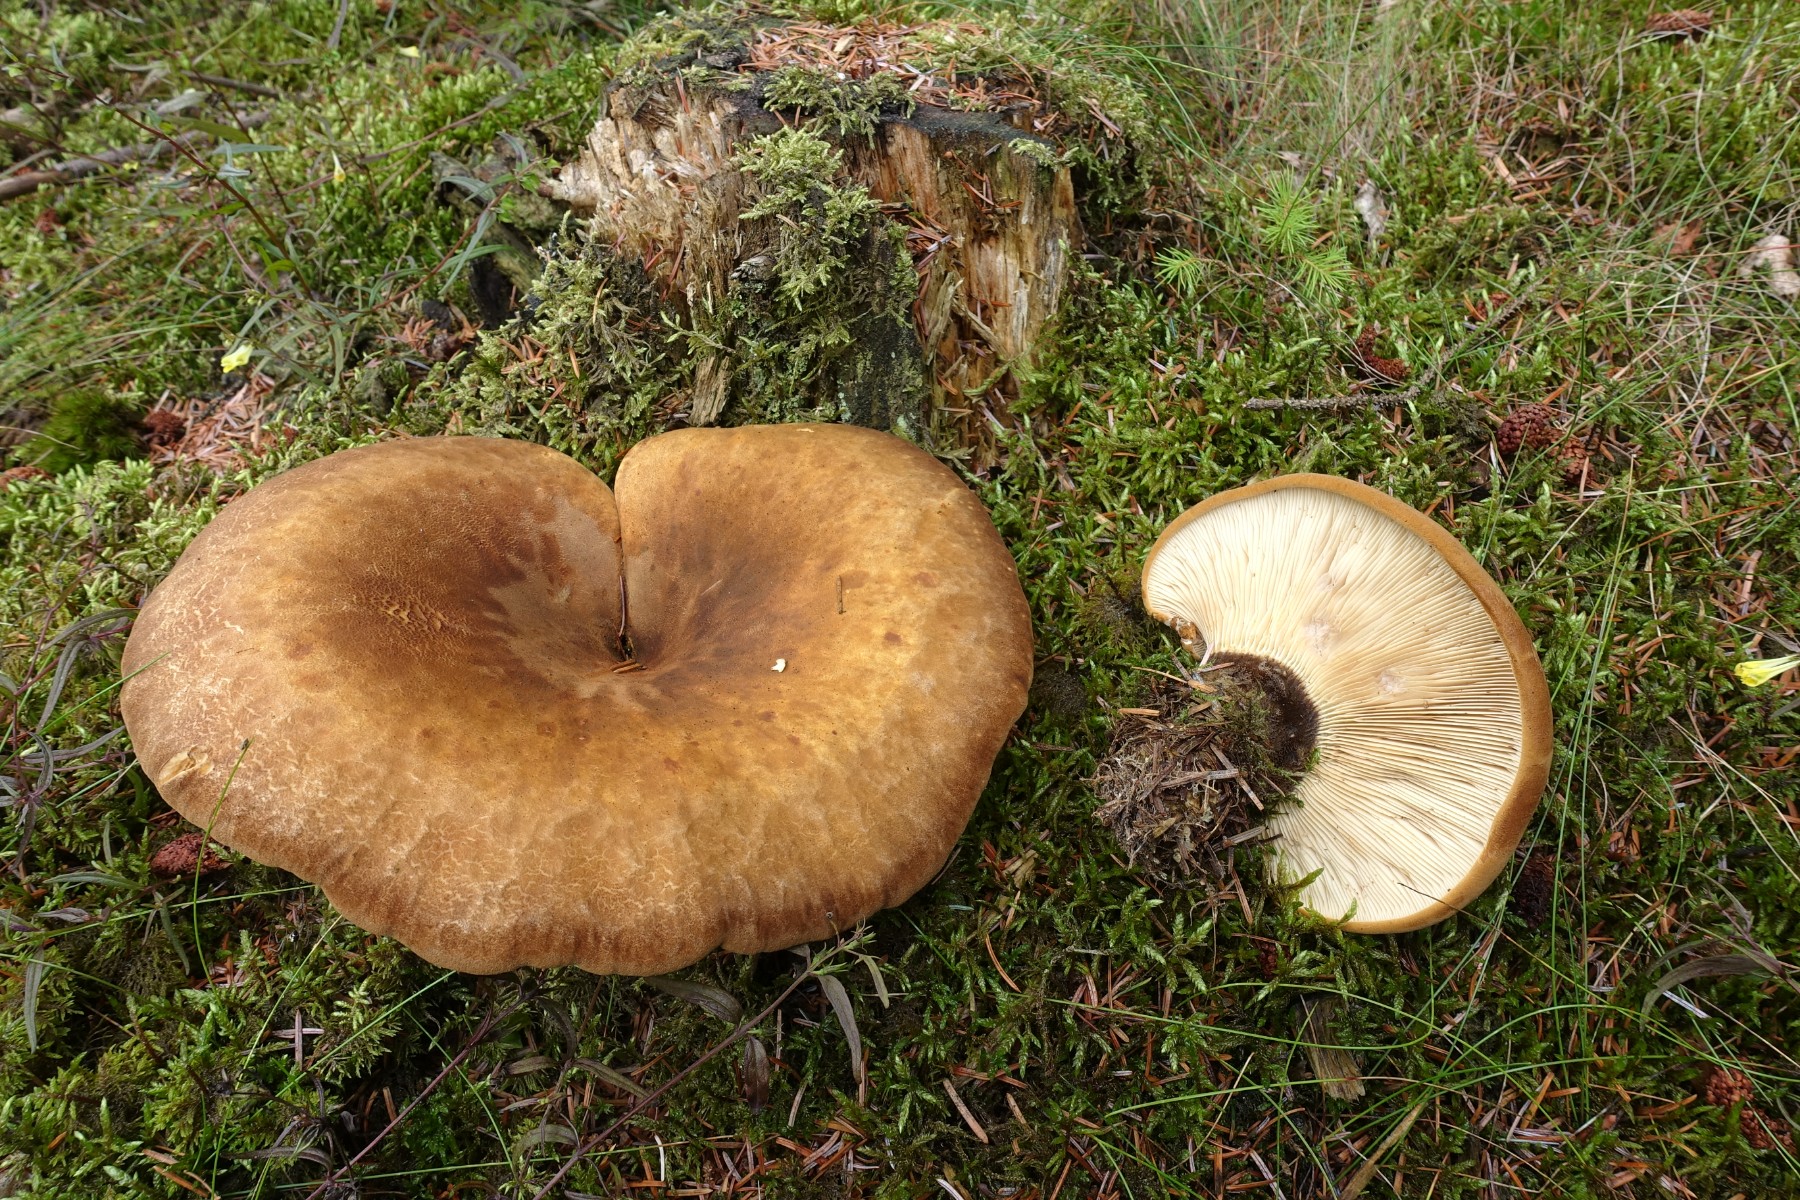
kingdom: Fungi
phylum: Basidiomycota
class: Agaricomycetes
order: Boletales
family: Tapinellaceae
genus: Tapinella
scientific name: Tapinella atrotomentosa
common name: sortfiltet viftesvamp
